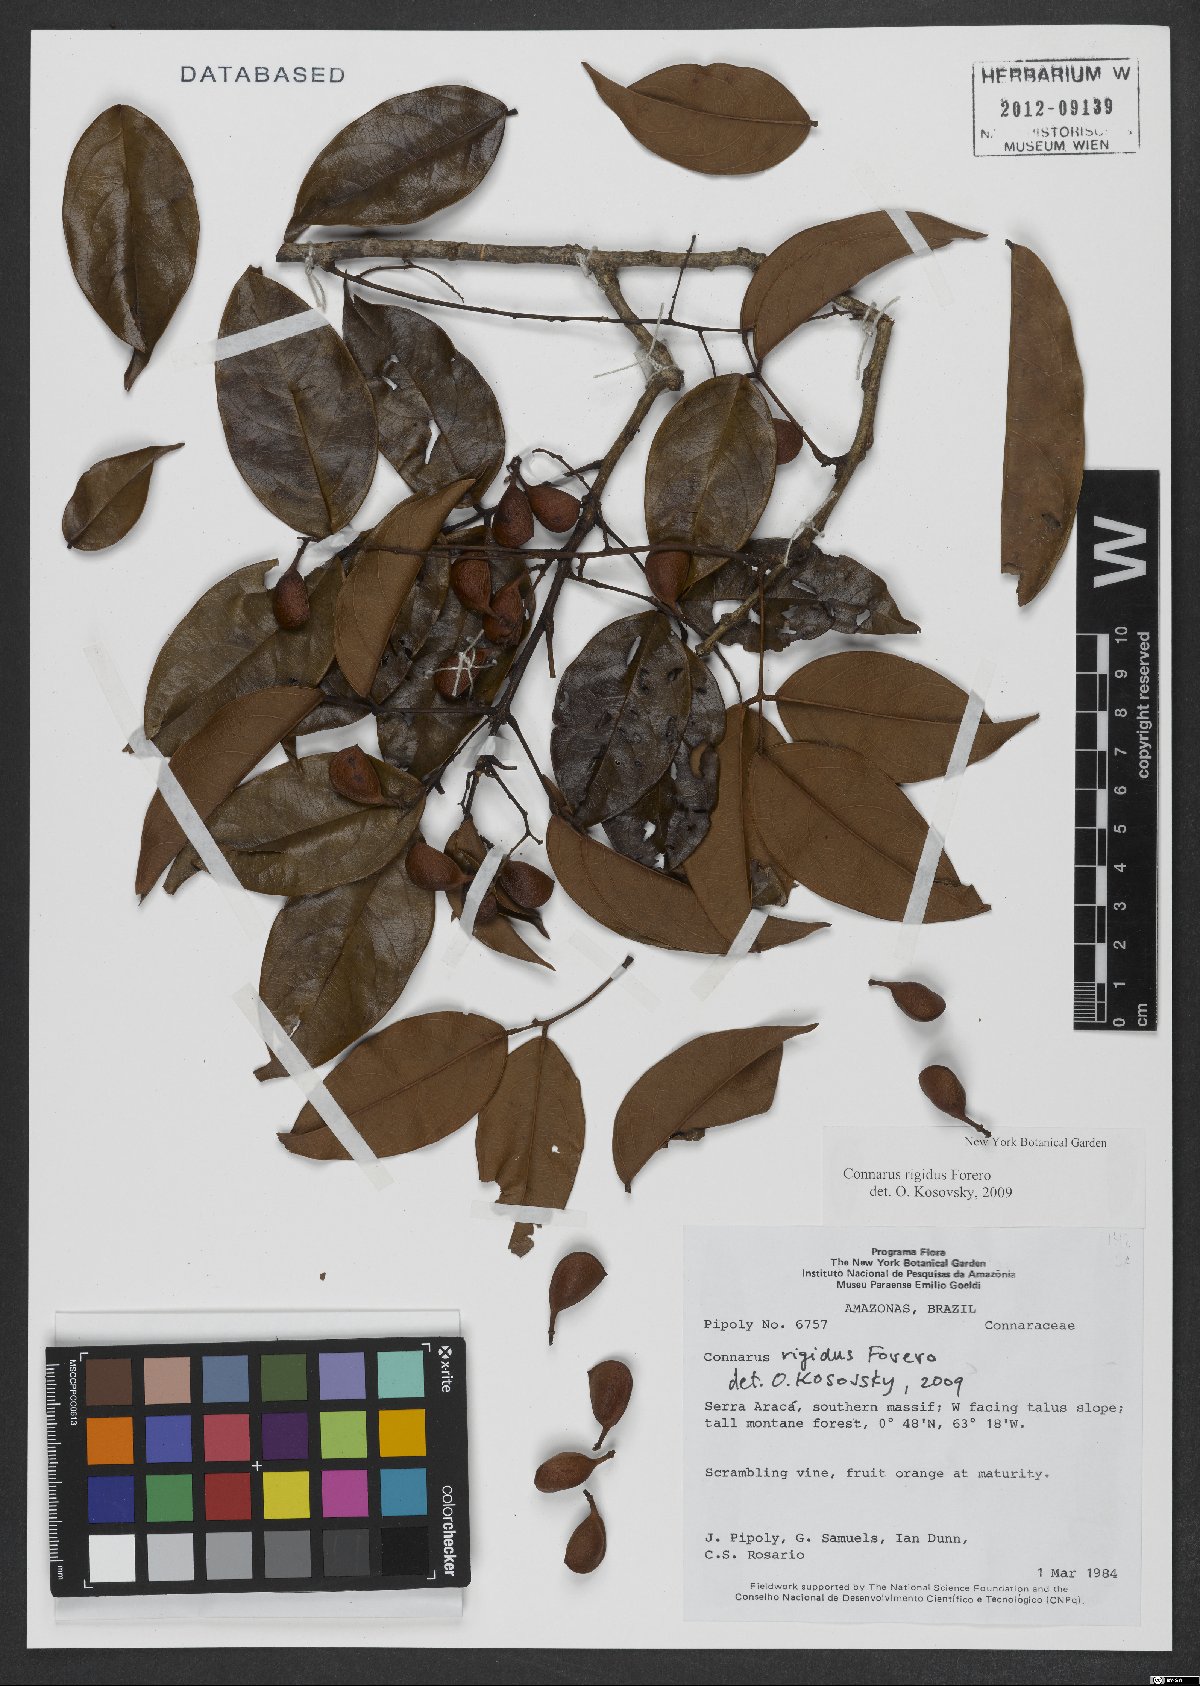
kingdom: Plantae
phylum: Tracheophyta
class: Magnoliopsida
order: Oxalidales
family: Connaraceae
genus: Connarus
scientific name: Connarus coriaceus
